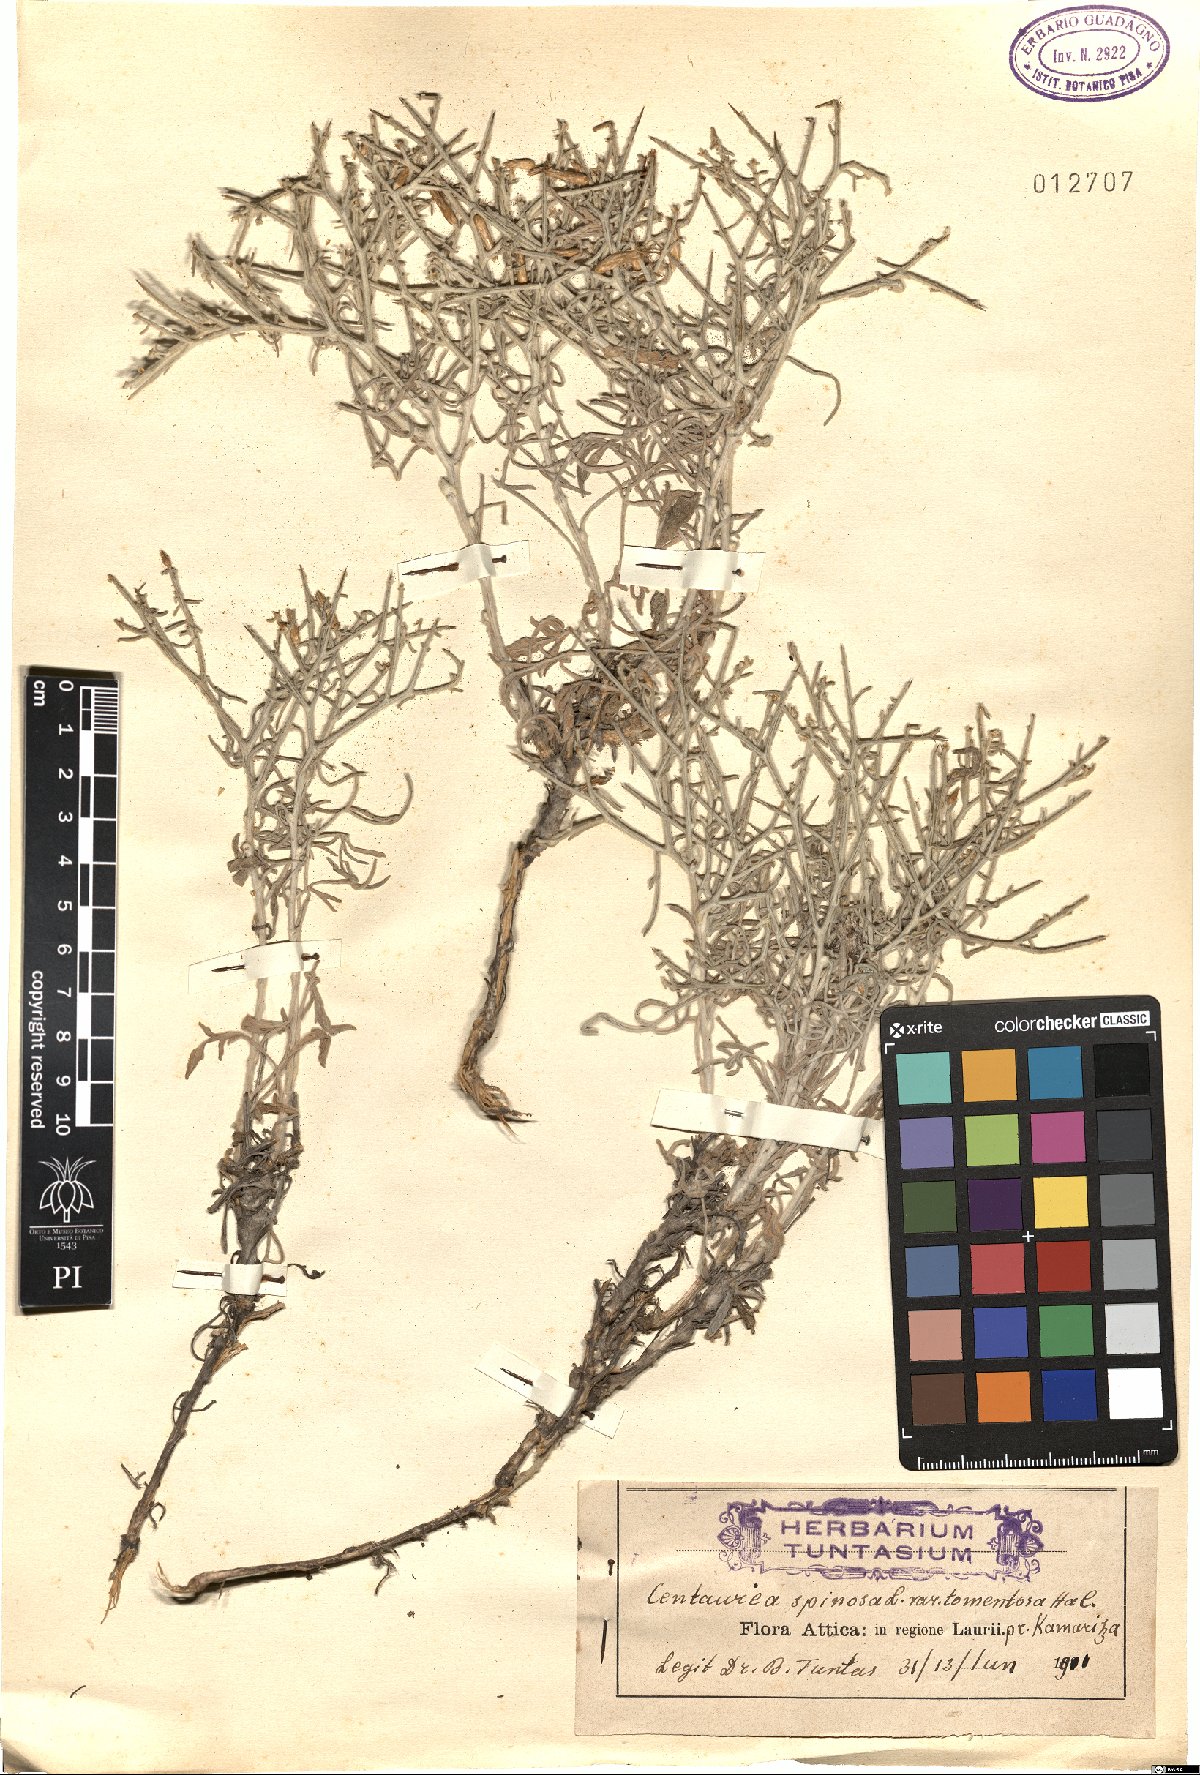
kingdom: Plantae
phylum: Tracheophyta
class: Magnoliopsida
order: Asterales
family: Asteraceae
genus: Centaurea
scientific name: Centaurea spinosa
